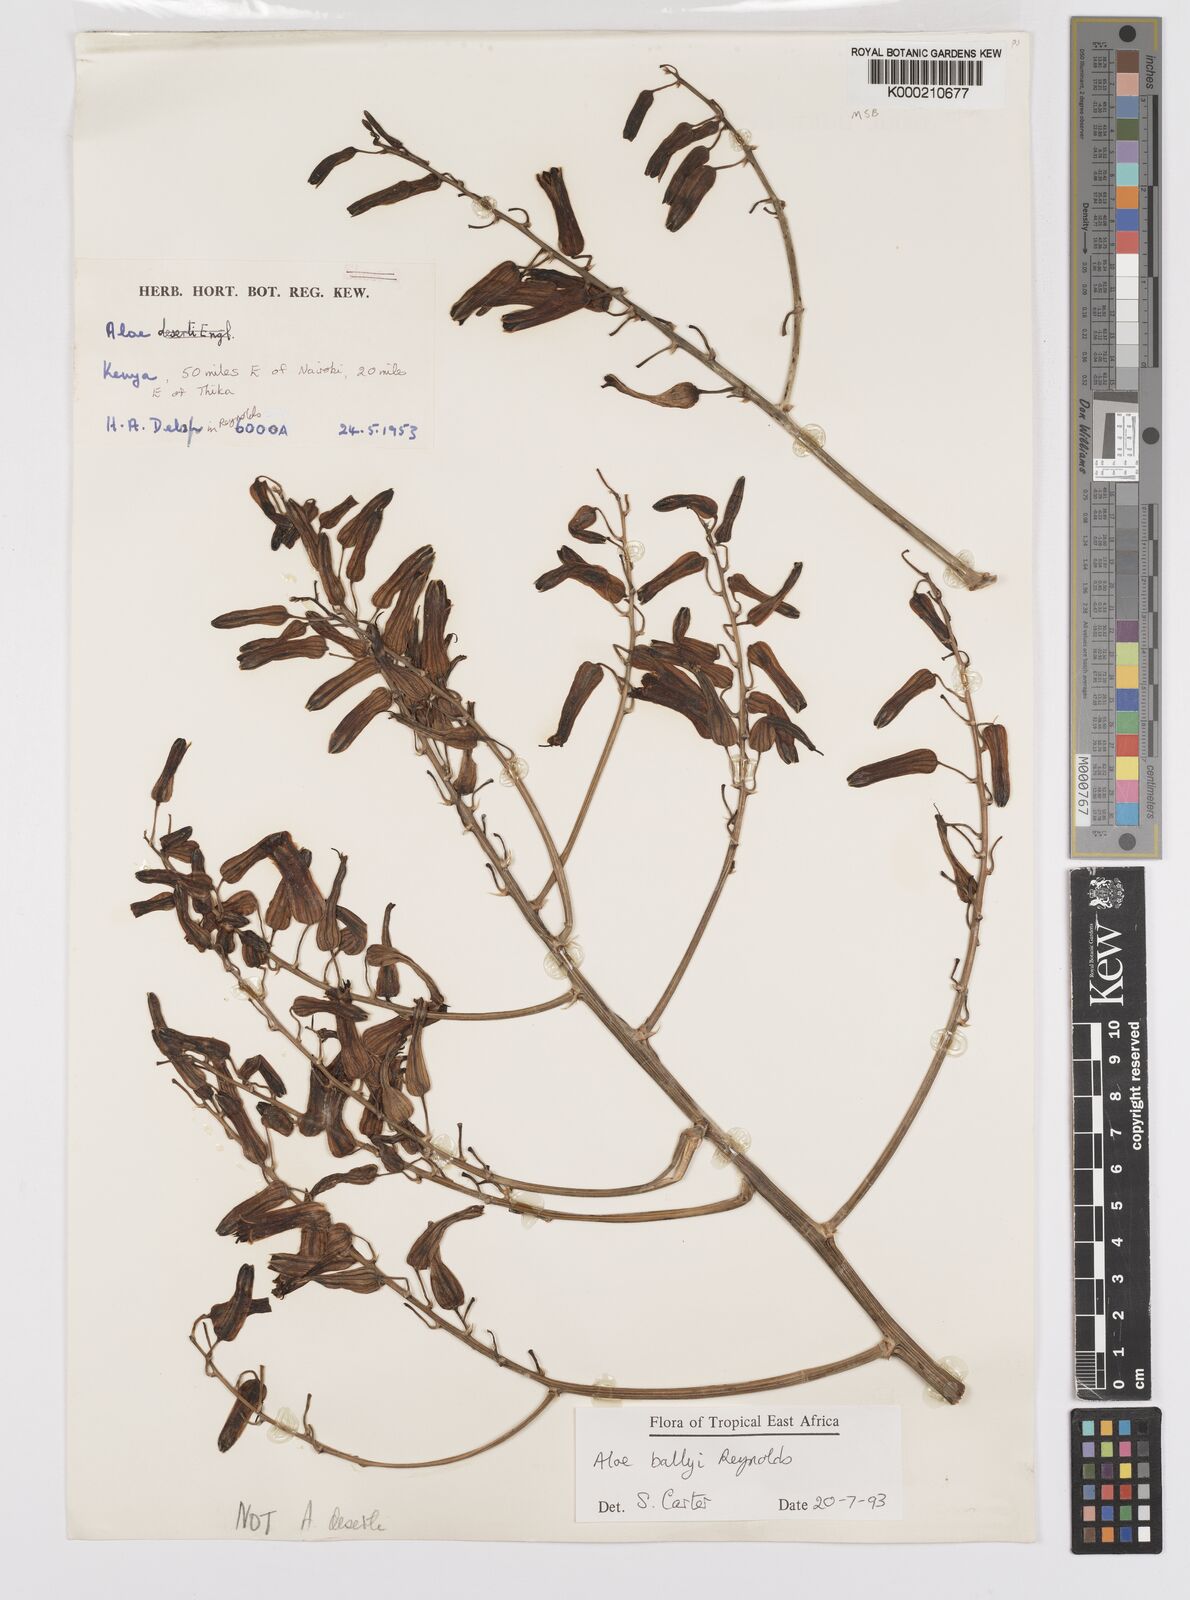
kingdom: Plantae
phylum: Tracheophyta
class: Liliopsida
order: Asparagales
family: Asphodelaceae
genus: Aloe
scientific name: Aloe ballyi
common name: Rat aloe
